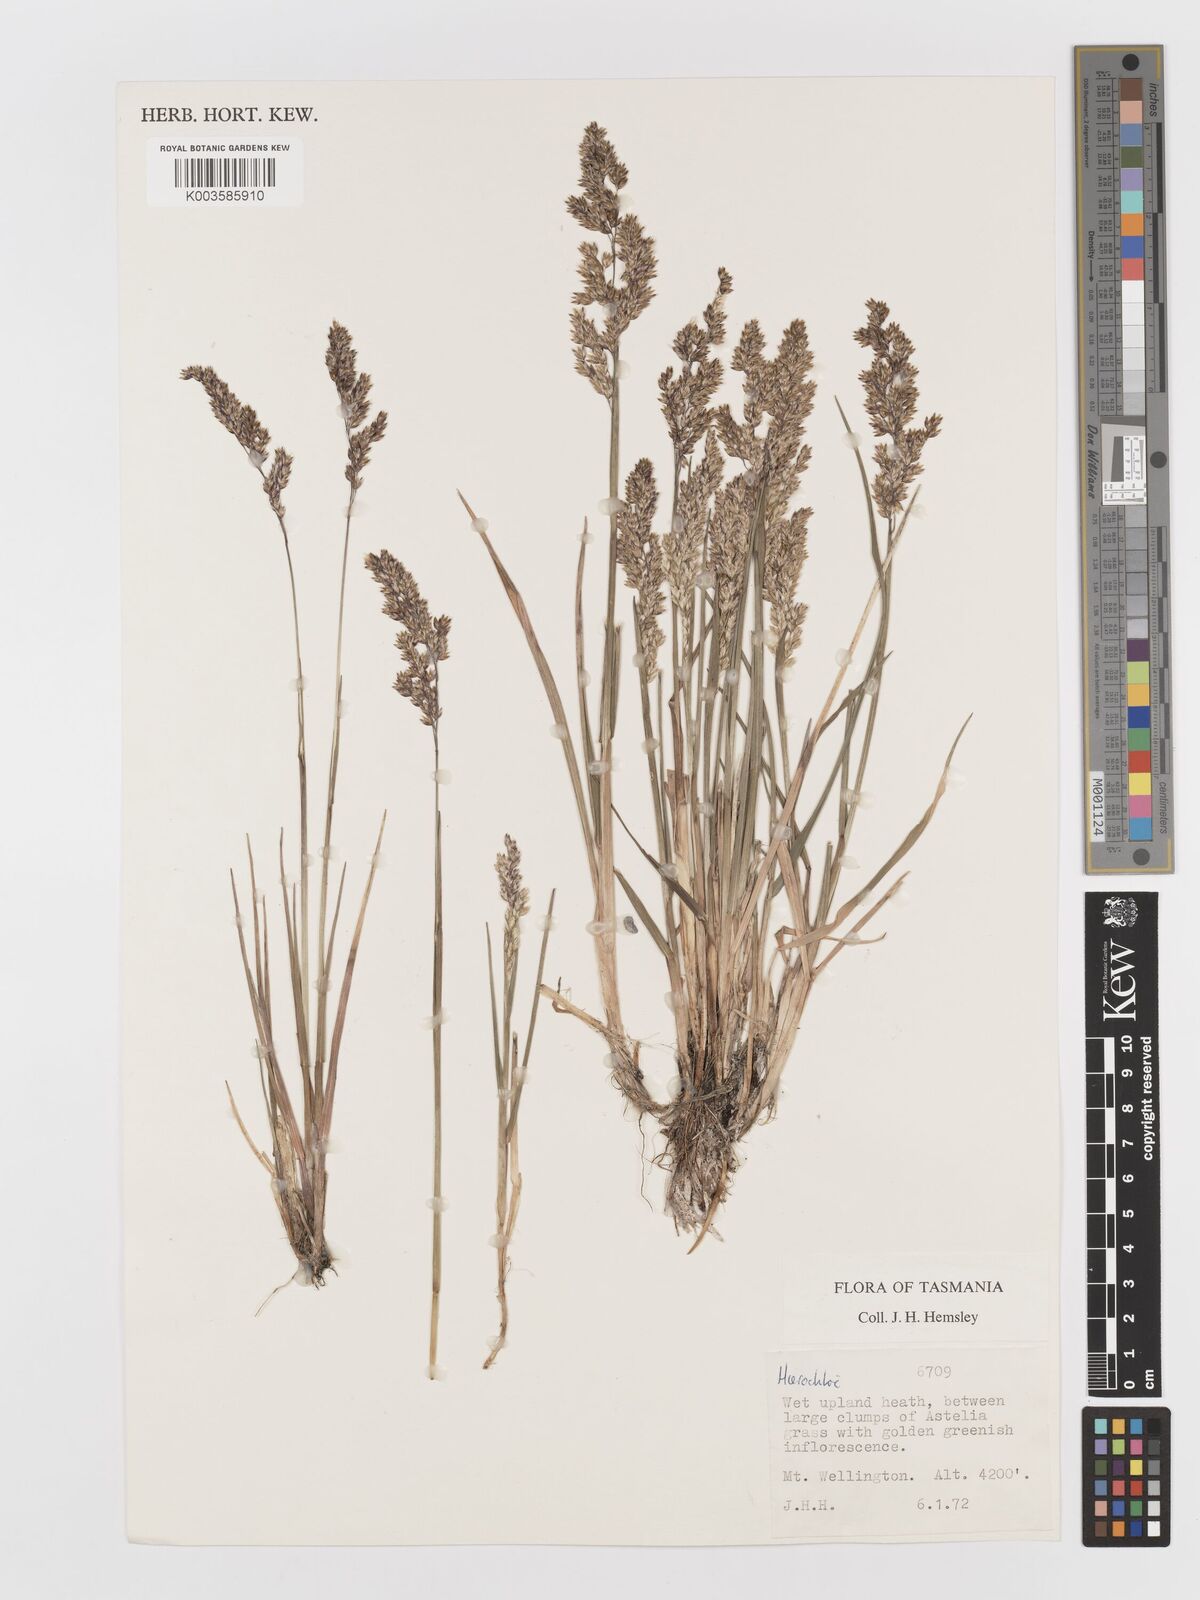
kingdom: Plantae
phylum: Tracheophyta
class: Liliopsida
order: Poales
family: Poaceae
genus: Anthoxanthum
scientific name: Anthoxanthum redolens
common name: Sweet holy grass
